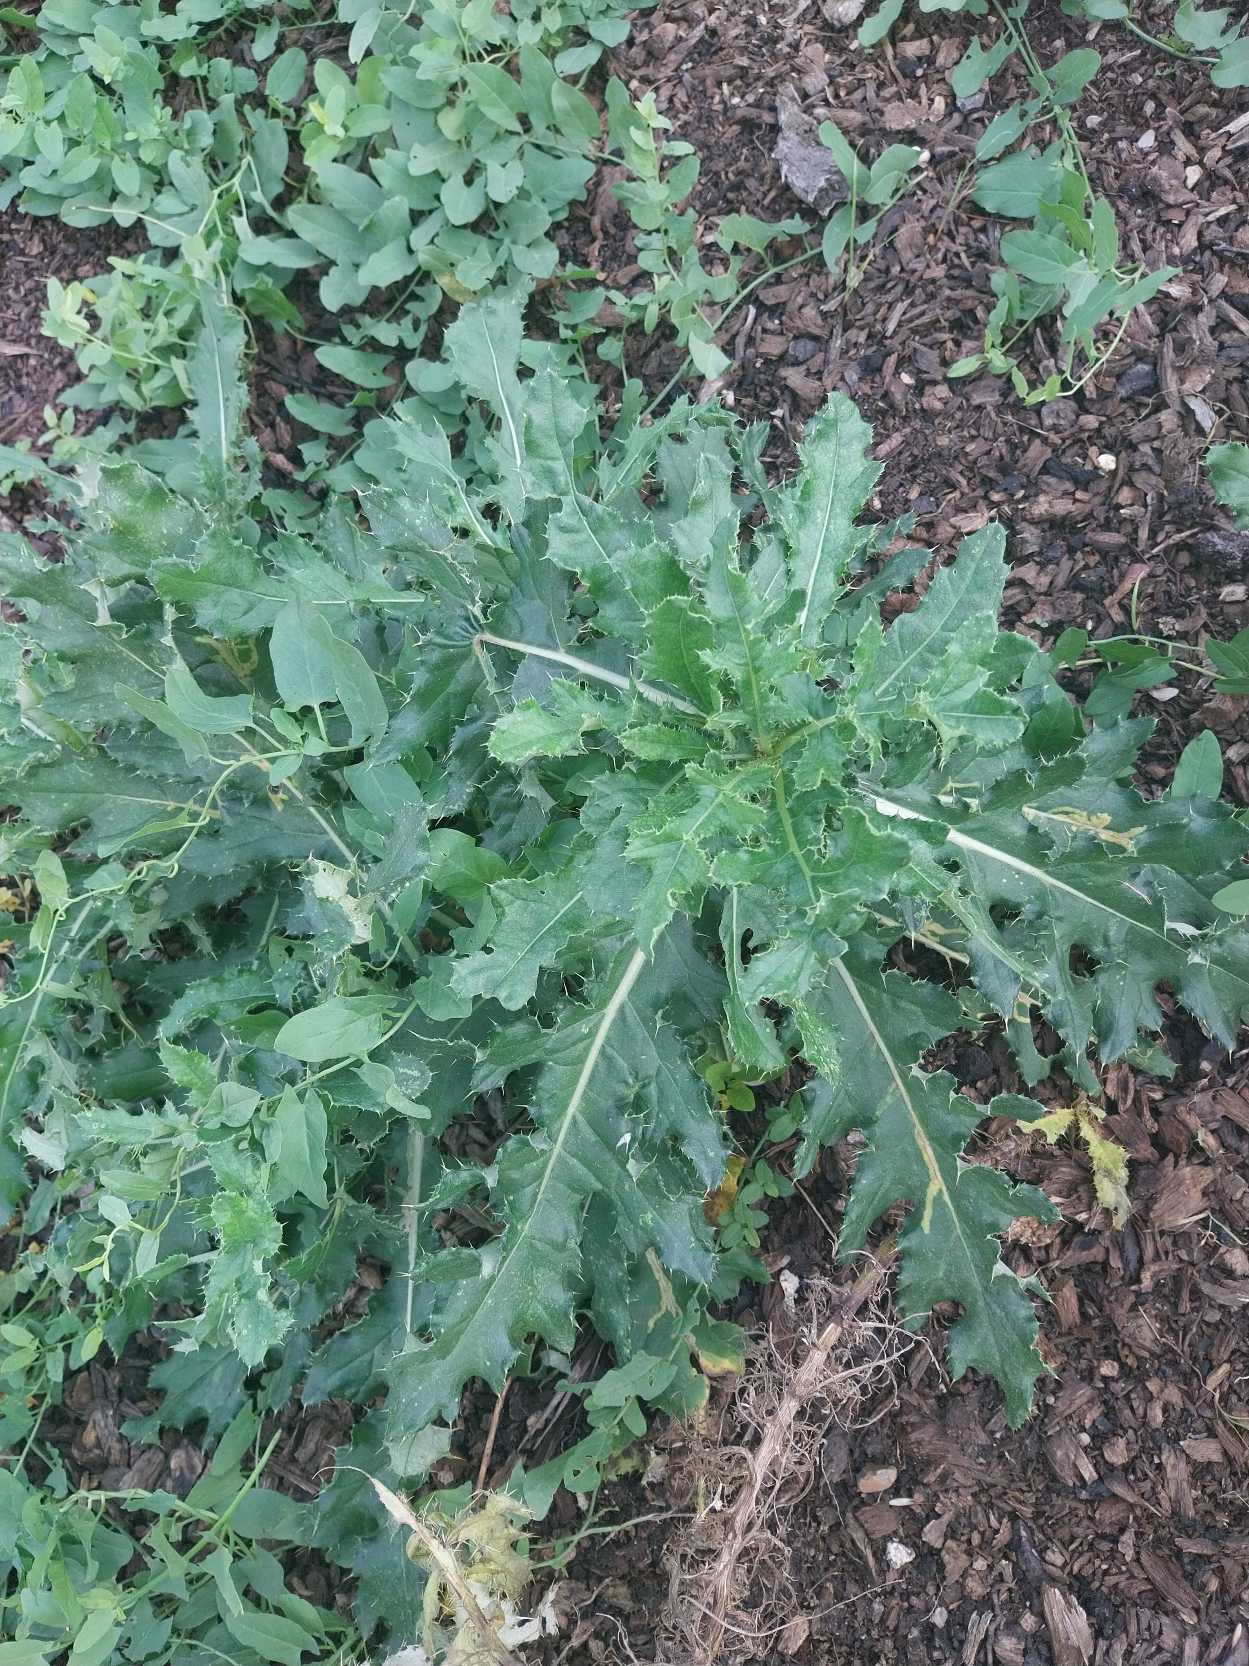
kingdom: Plantae
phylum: Tracheophyta
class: Magnoliopsida
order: Asterales
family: Asteraceae
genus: Cirsium
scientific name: Cirsium arvense
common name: Ager-tidsel
